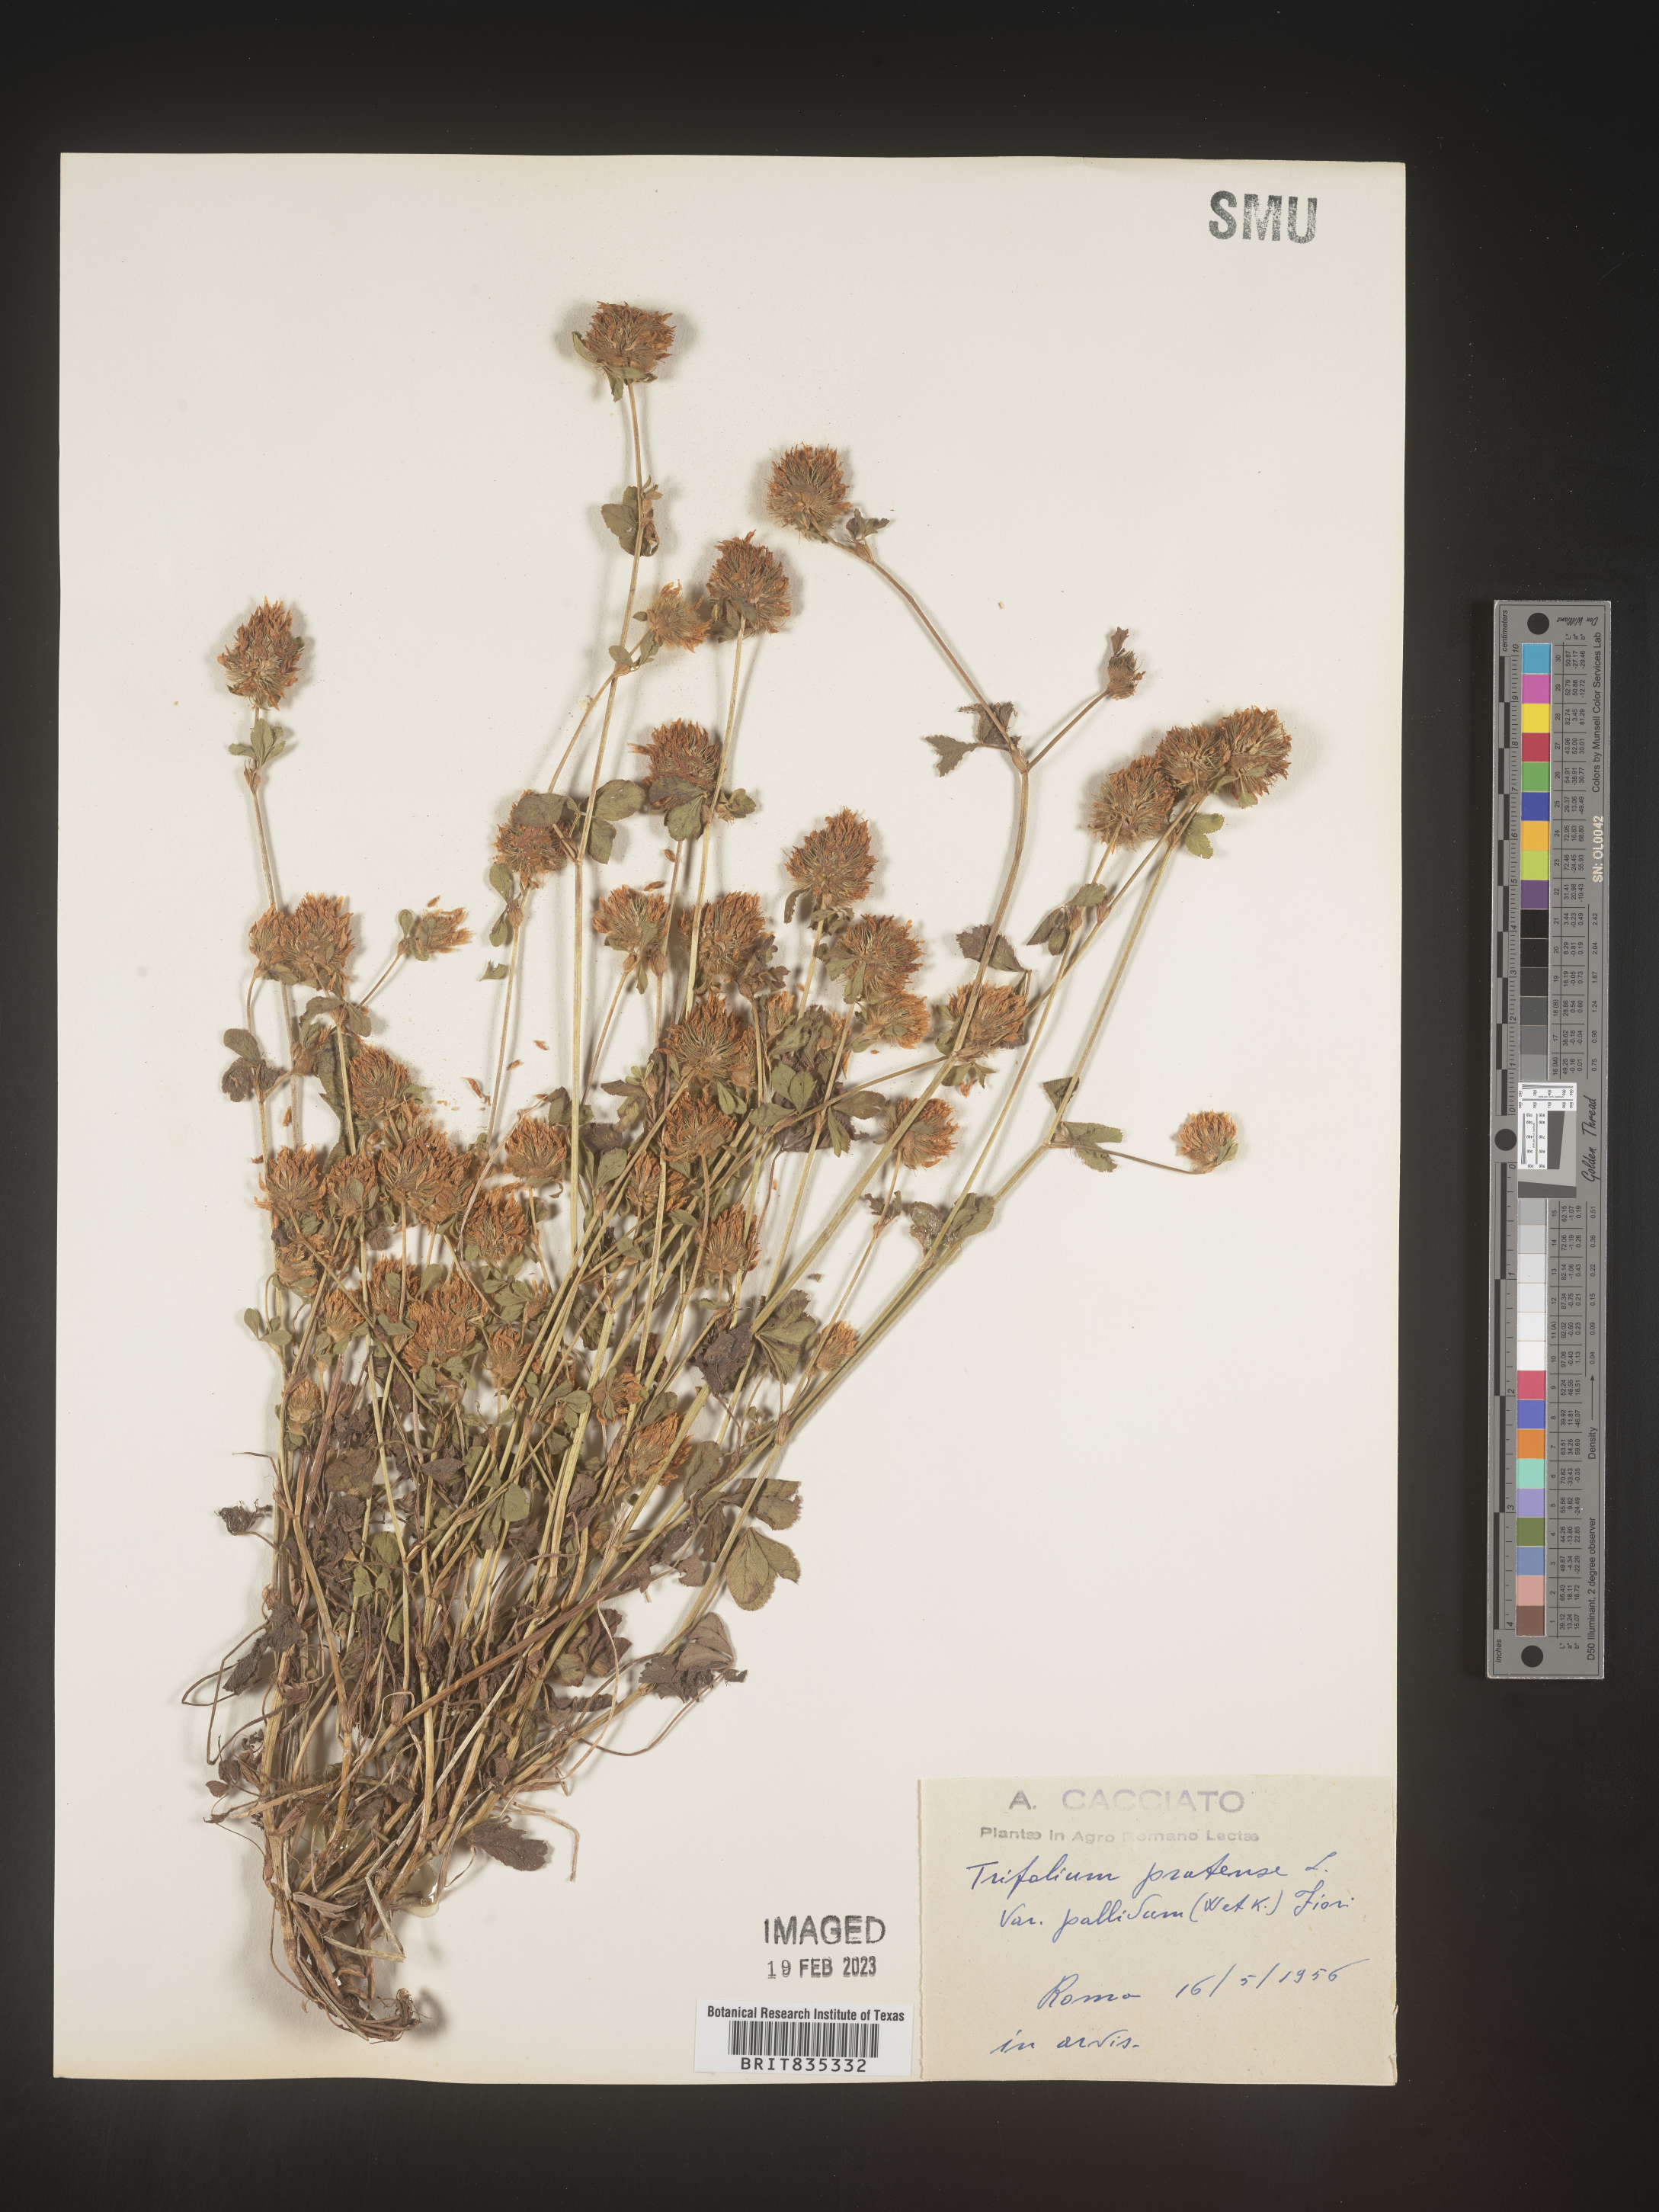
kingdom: Plantae
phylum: Tracheophyta
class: Magnoliopsida
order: Fabales
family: Fabaceae
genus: Trifolium
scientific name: Trifolium
